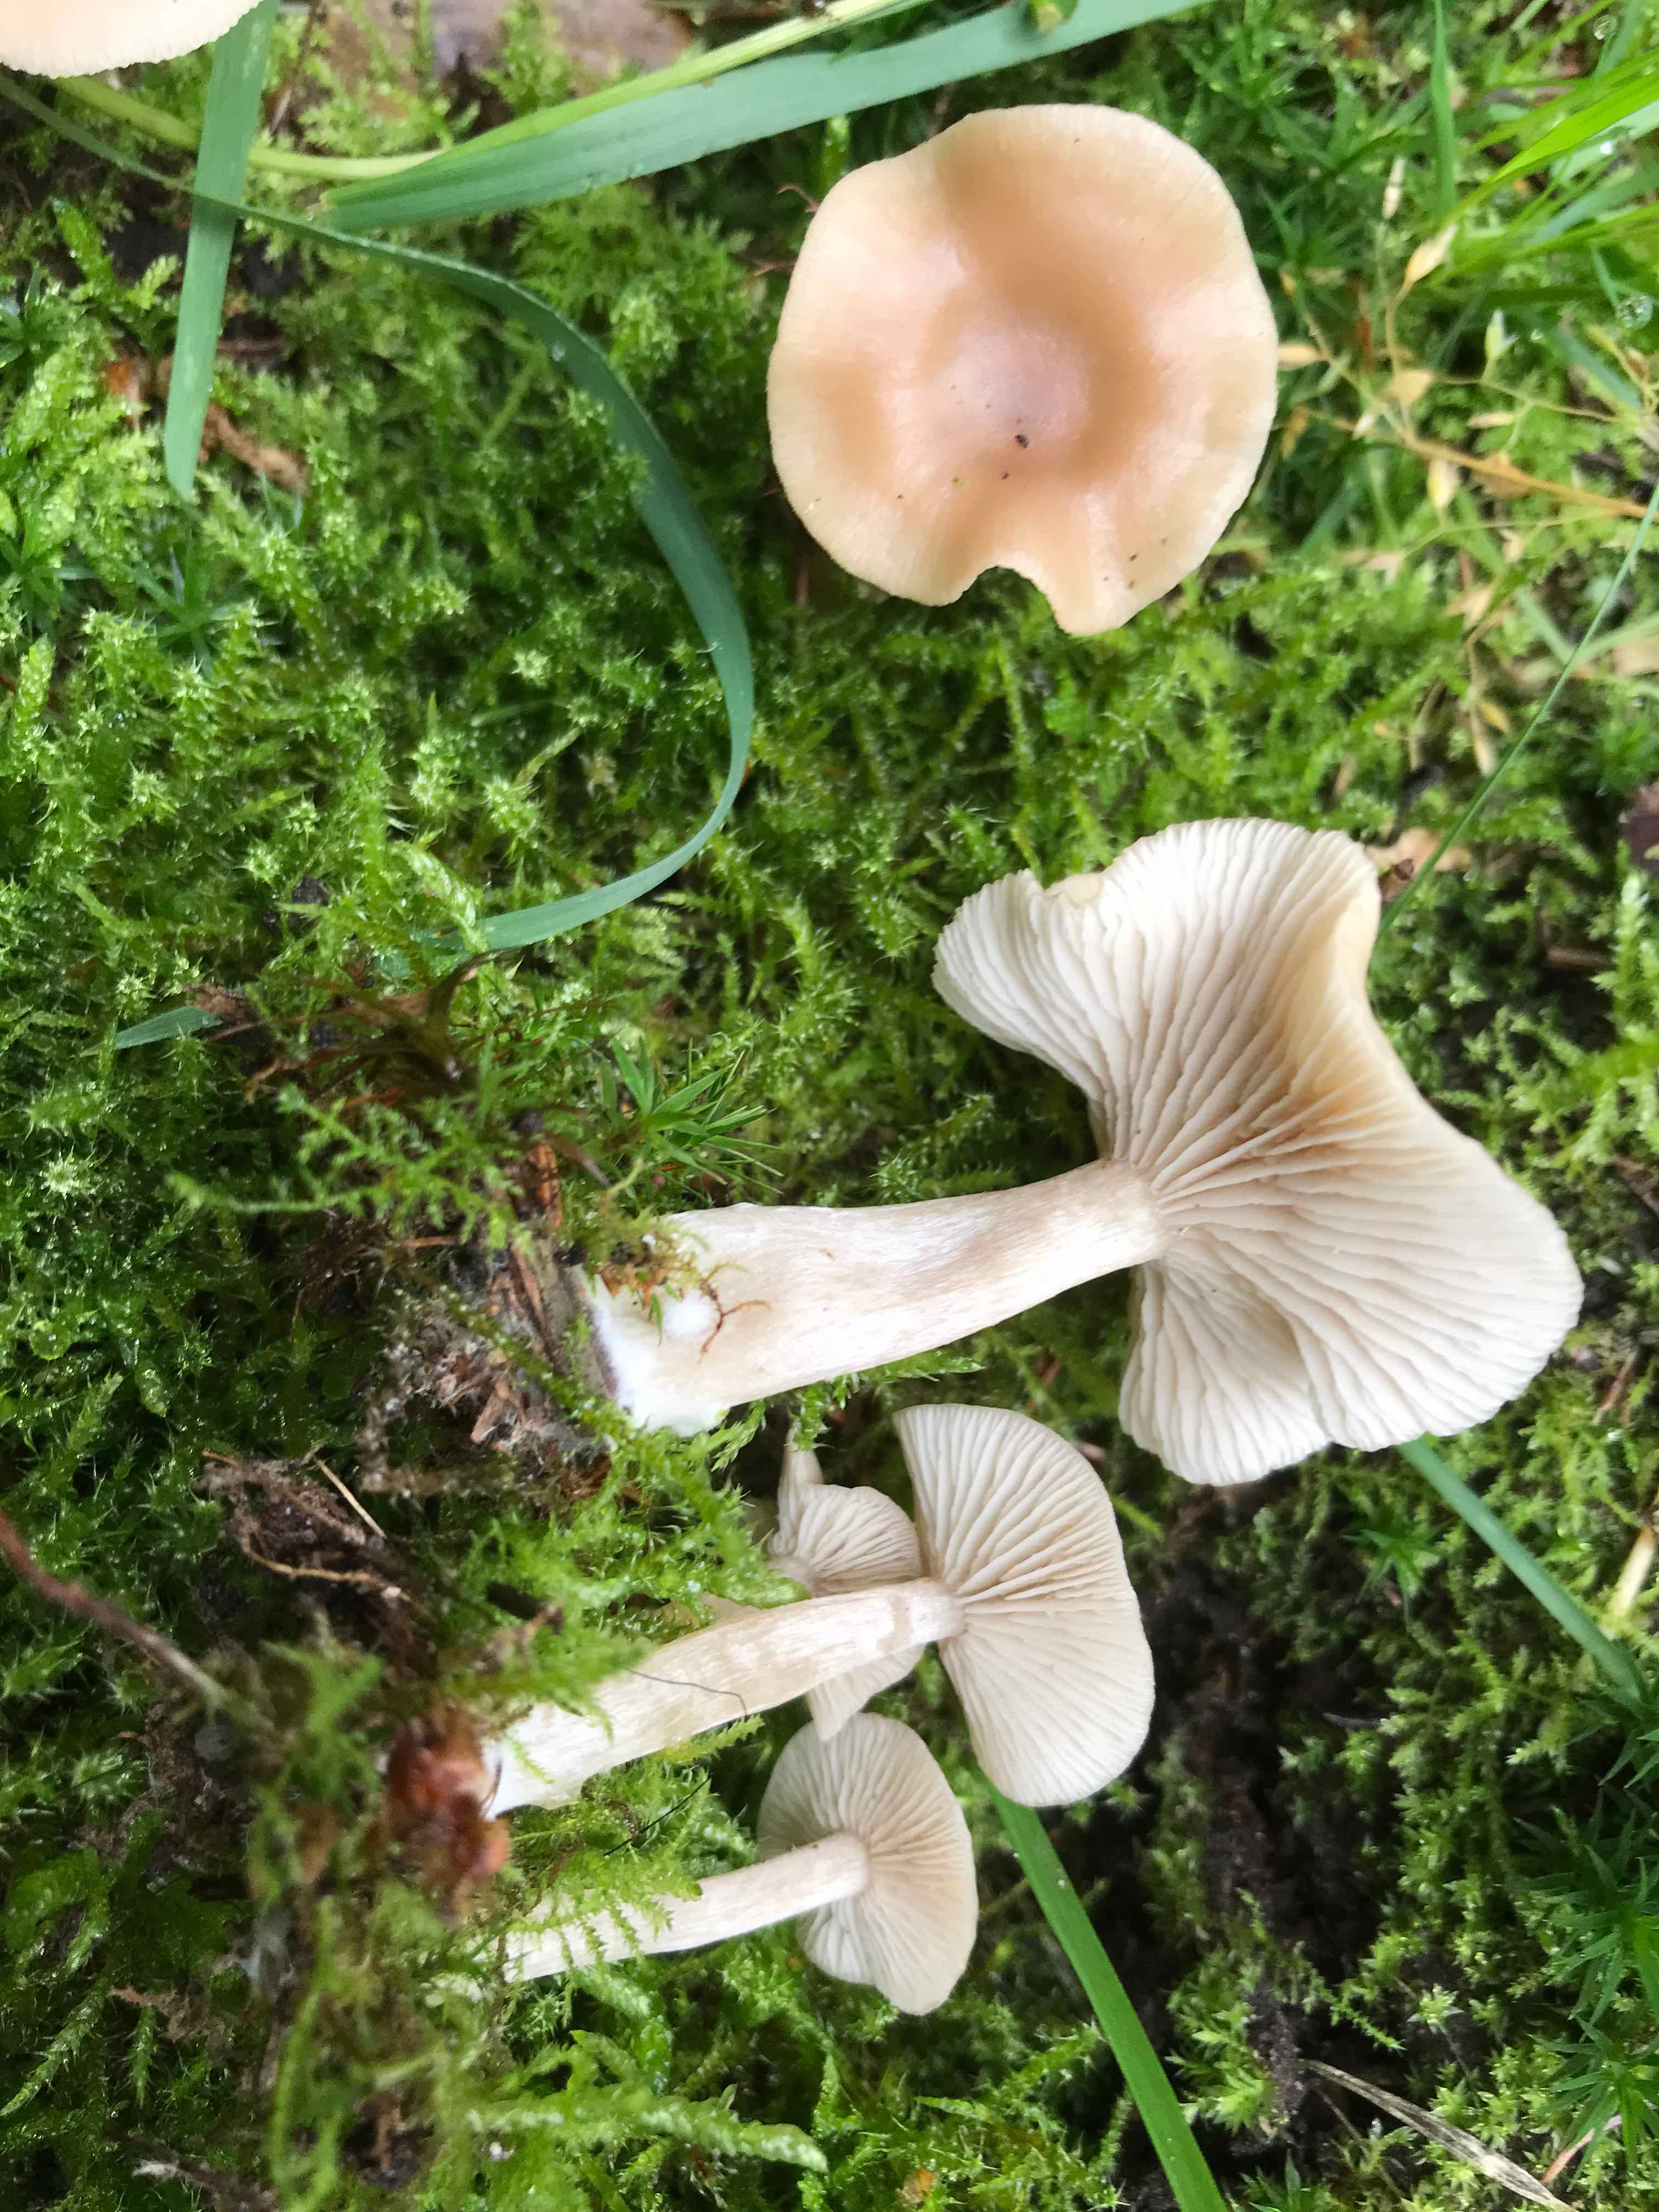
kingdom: Fungi
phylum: Basidiomycota
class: Agaricomycetes
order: Agaricales
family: Tricholomataceae
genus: Clitocybe
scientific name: Clitocybe fragrans
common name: vellugtende tragthat
